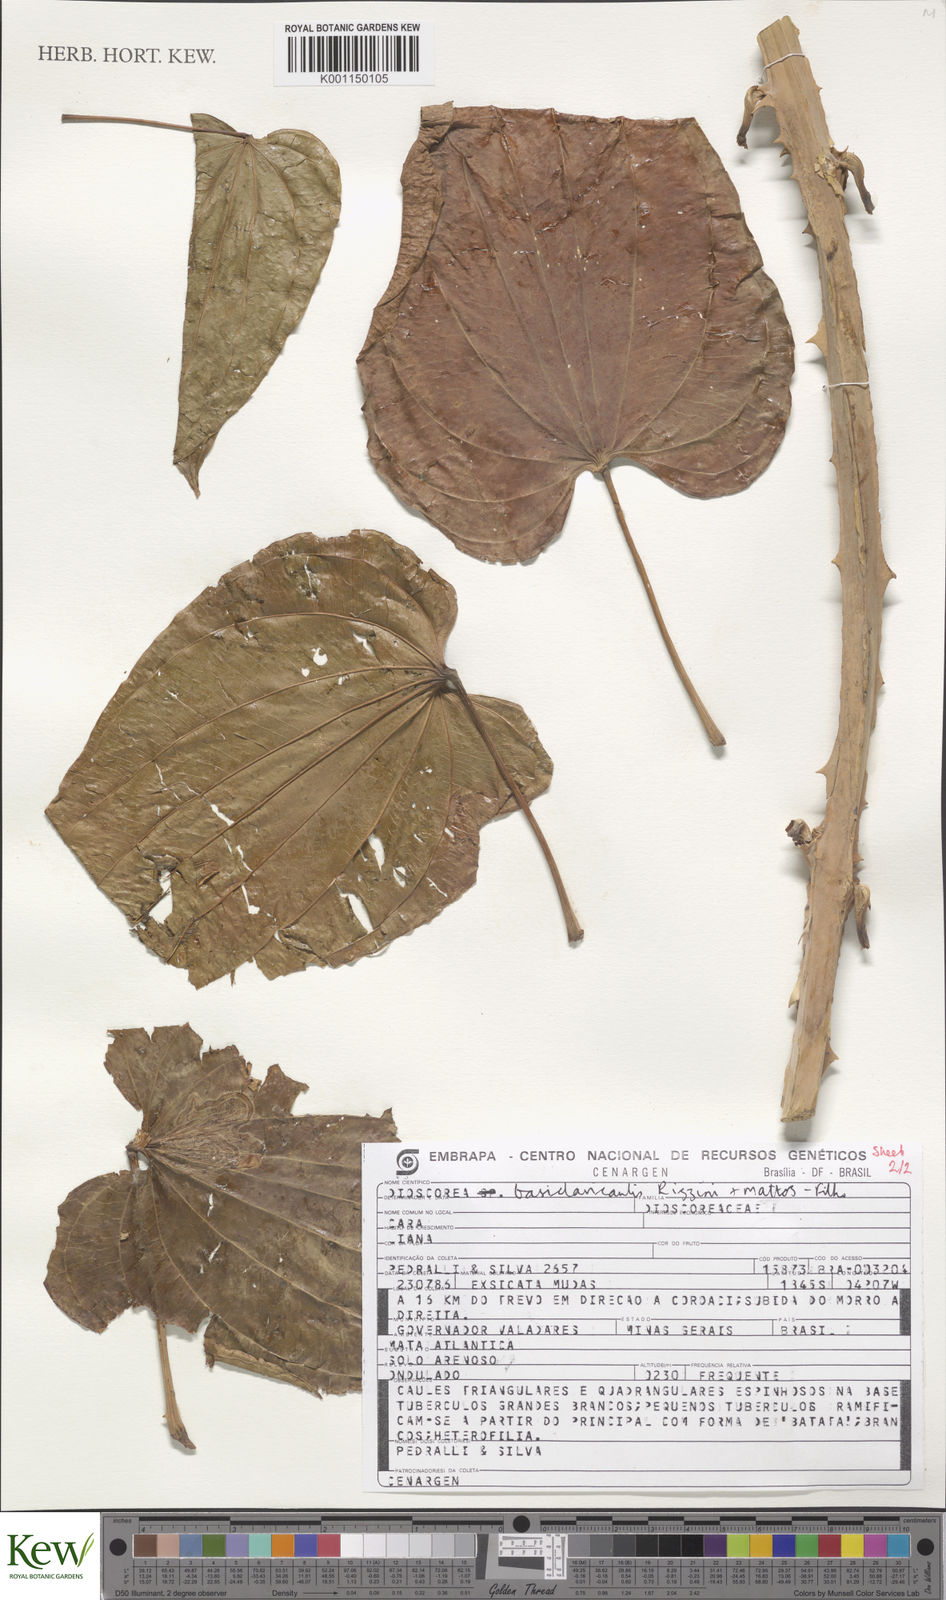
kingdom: Plantae
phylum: Tracheophyta
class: Liliopsida
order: Dioscoreales
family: Dioscoreaceae
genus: Dioscorea
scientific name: Dioscorea basiclavicaulis
